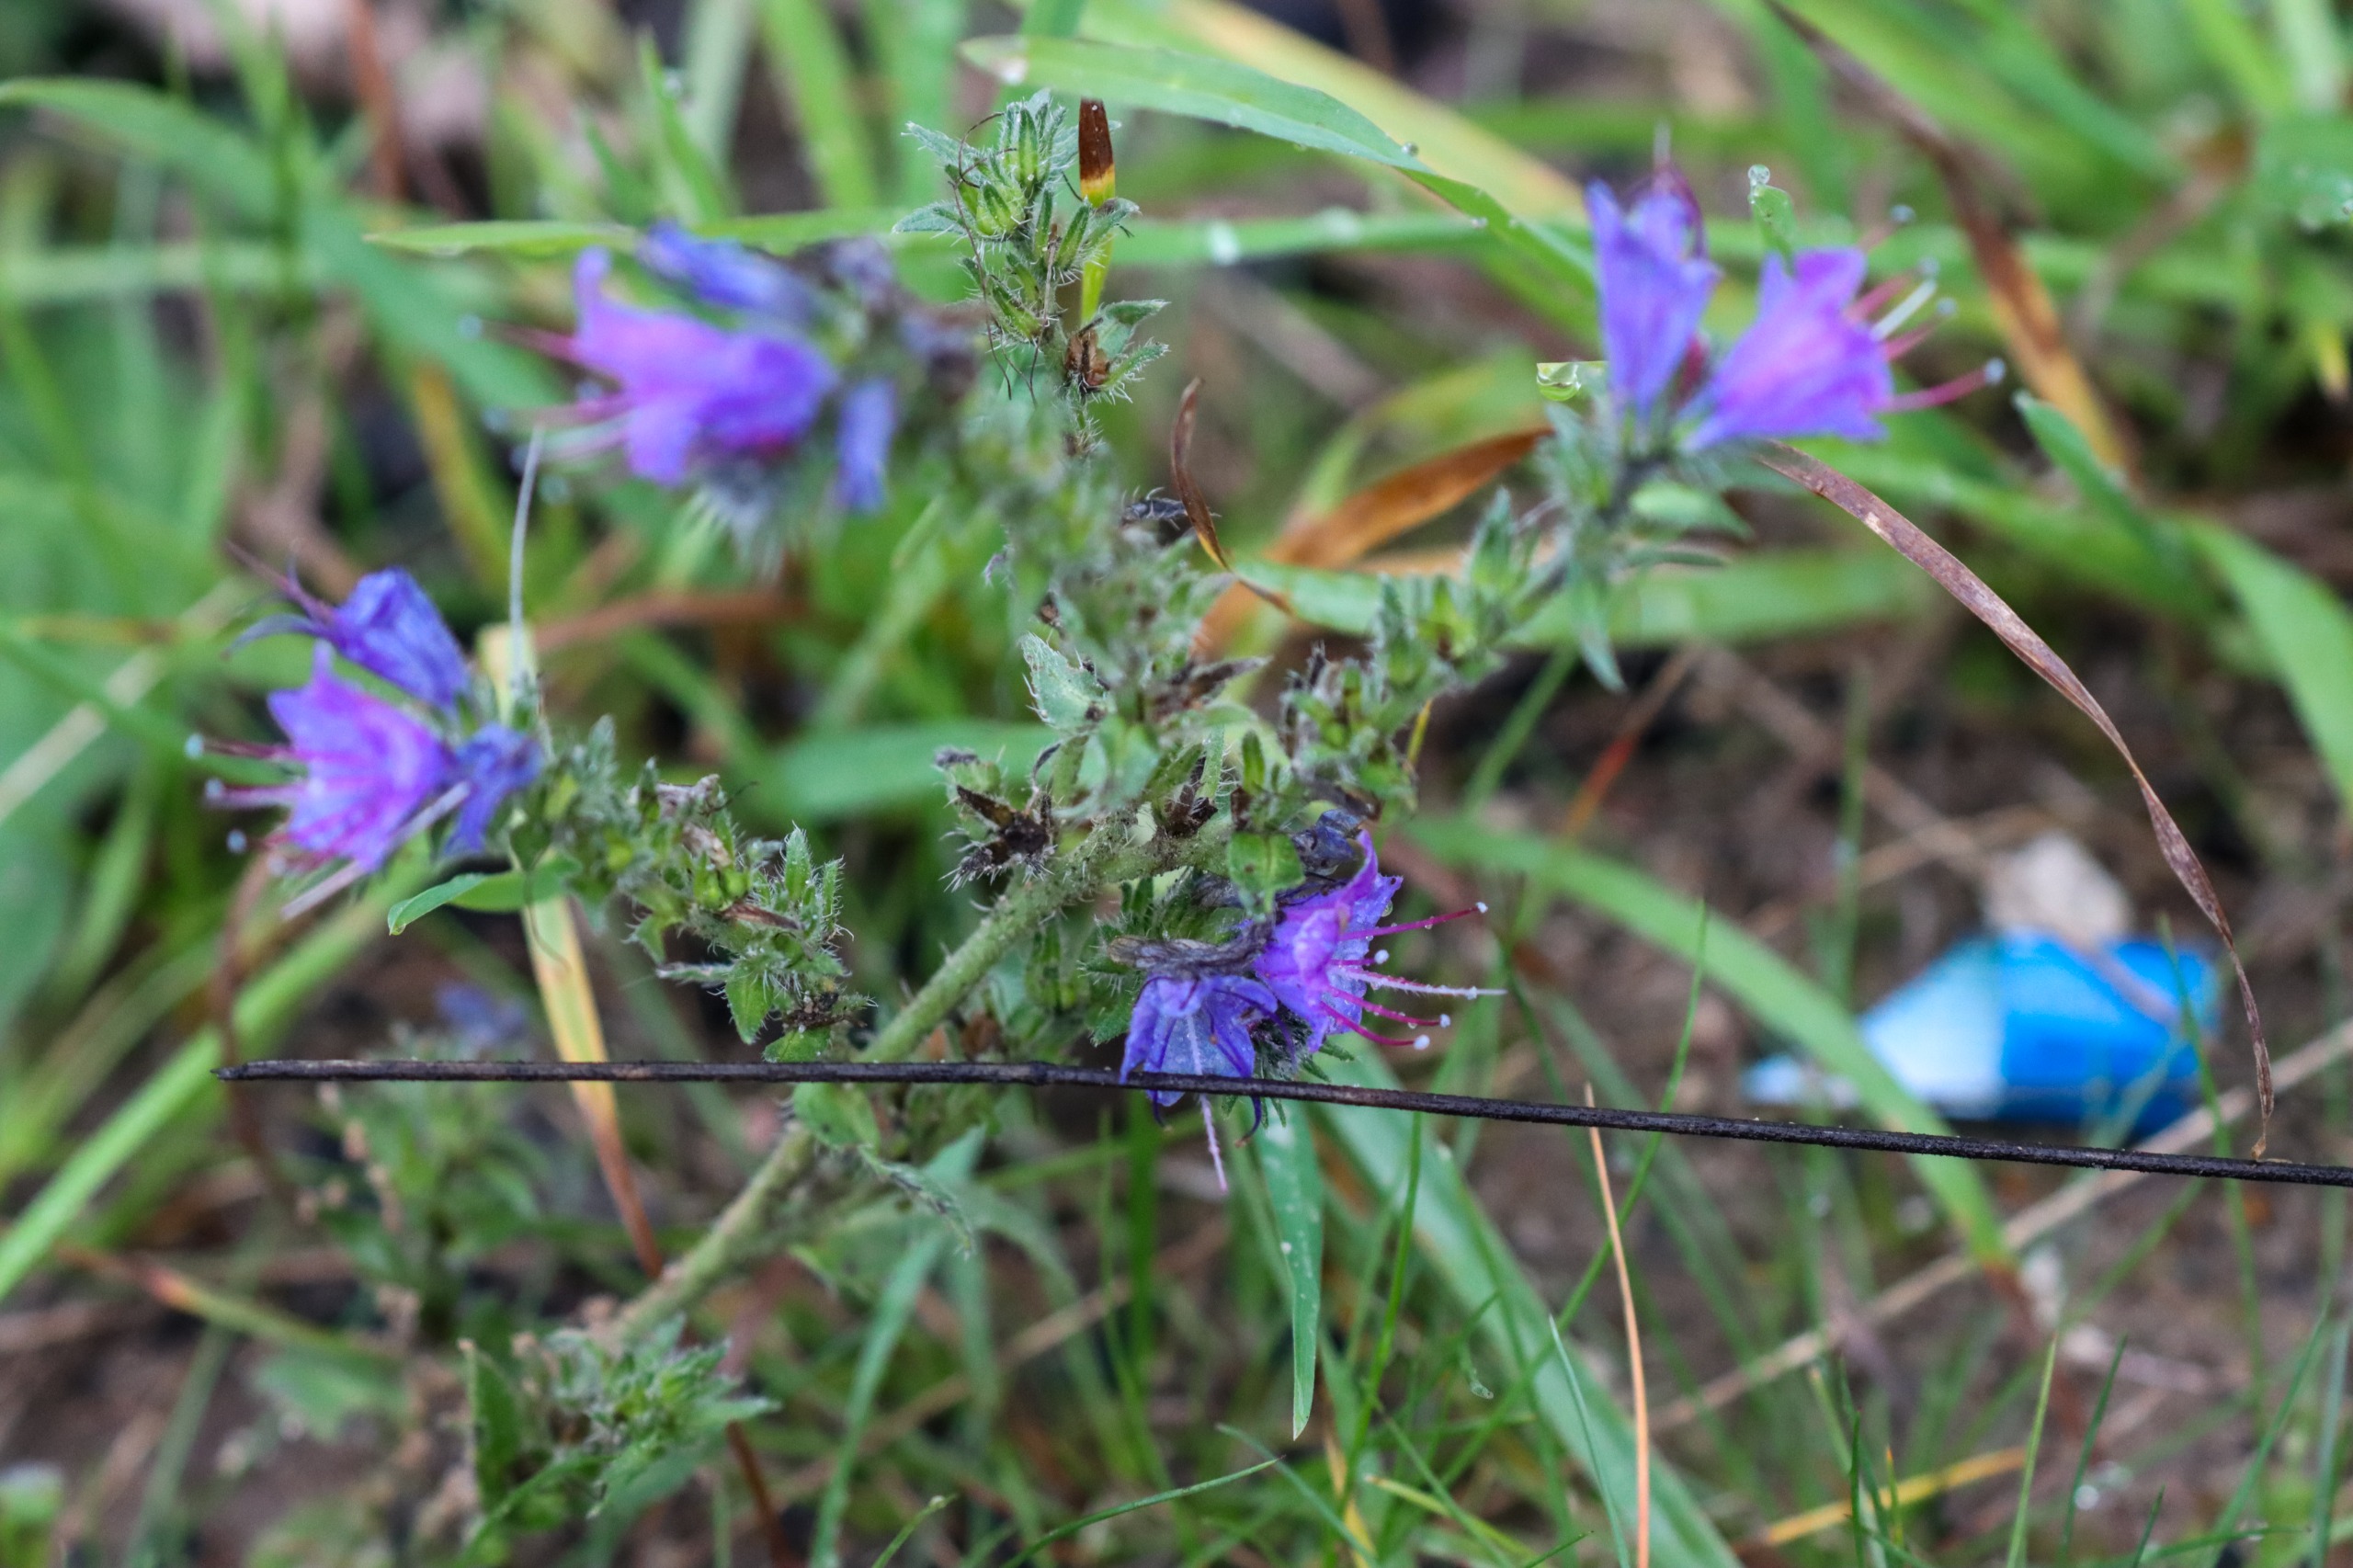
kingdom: Plantae
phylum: Tracheophyta
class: Magnoliopsida
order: Boraginales
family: Boraginaceae
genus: Echium
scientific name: Echium vulgare
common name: Slangehoved
